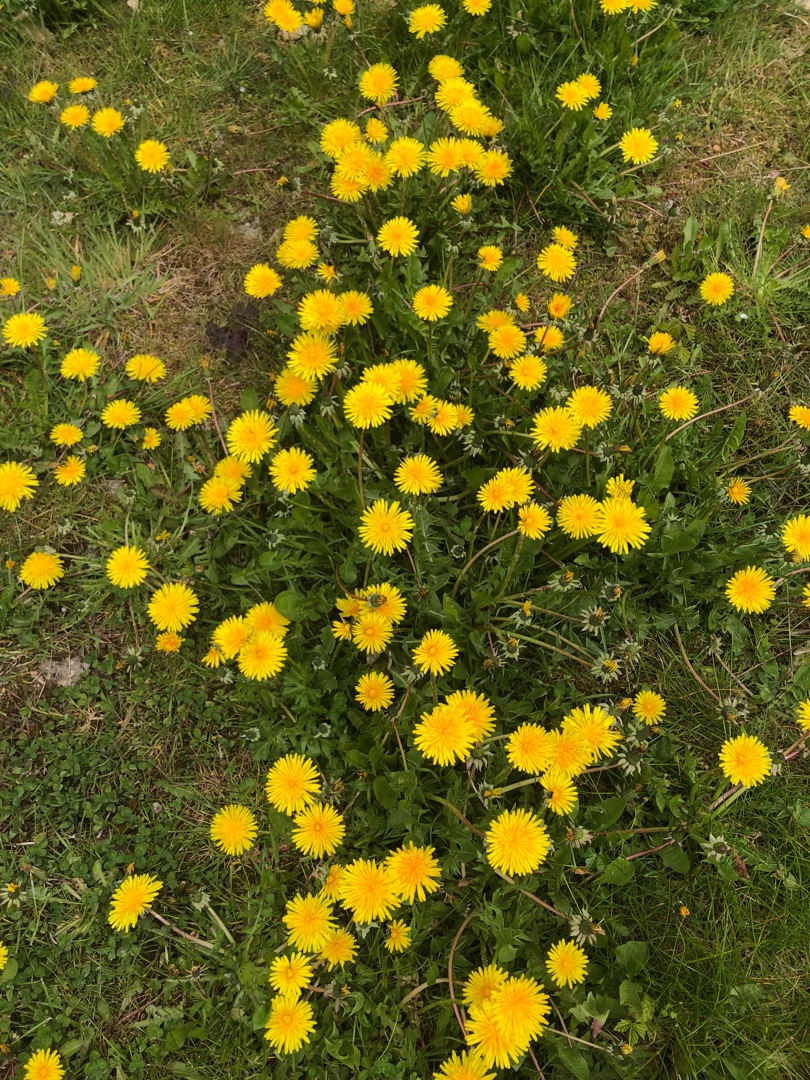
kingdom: Plantae
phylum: Tracheophyta
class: Magnoliopsida
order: Asterales
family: Asteraceae
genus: Taraxacum
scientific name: Taraxacum
